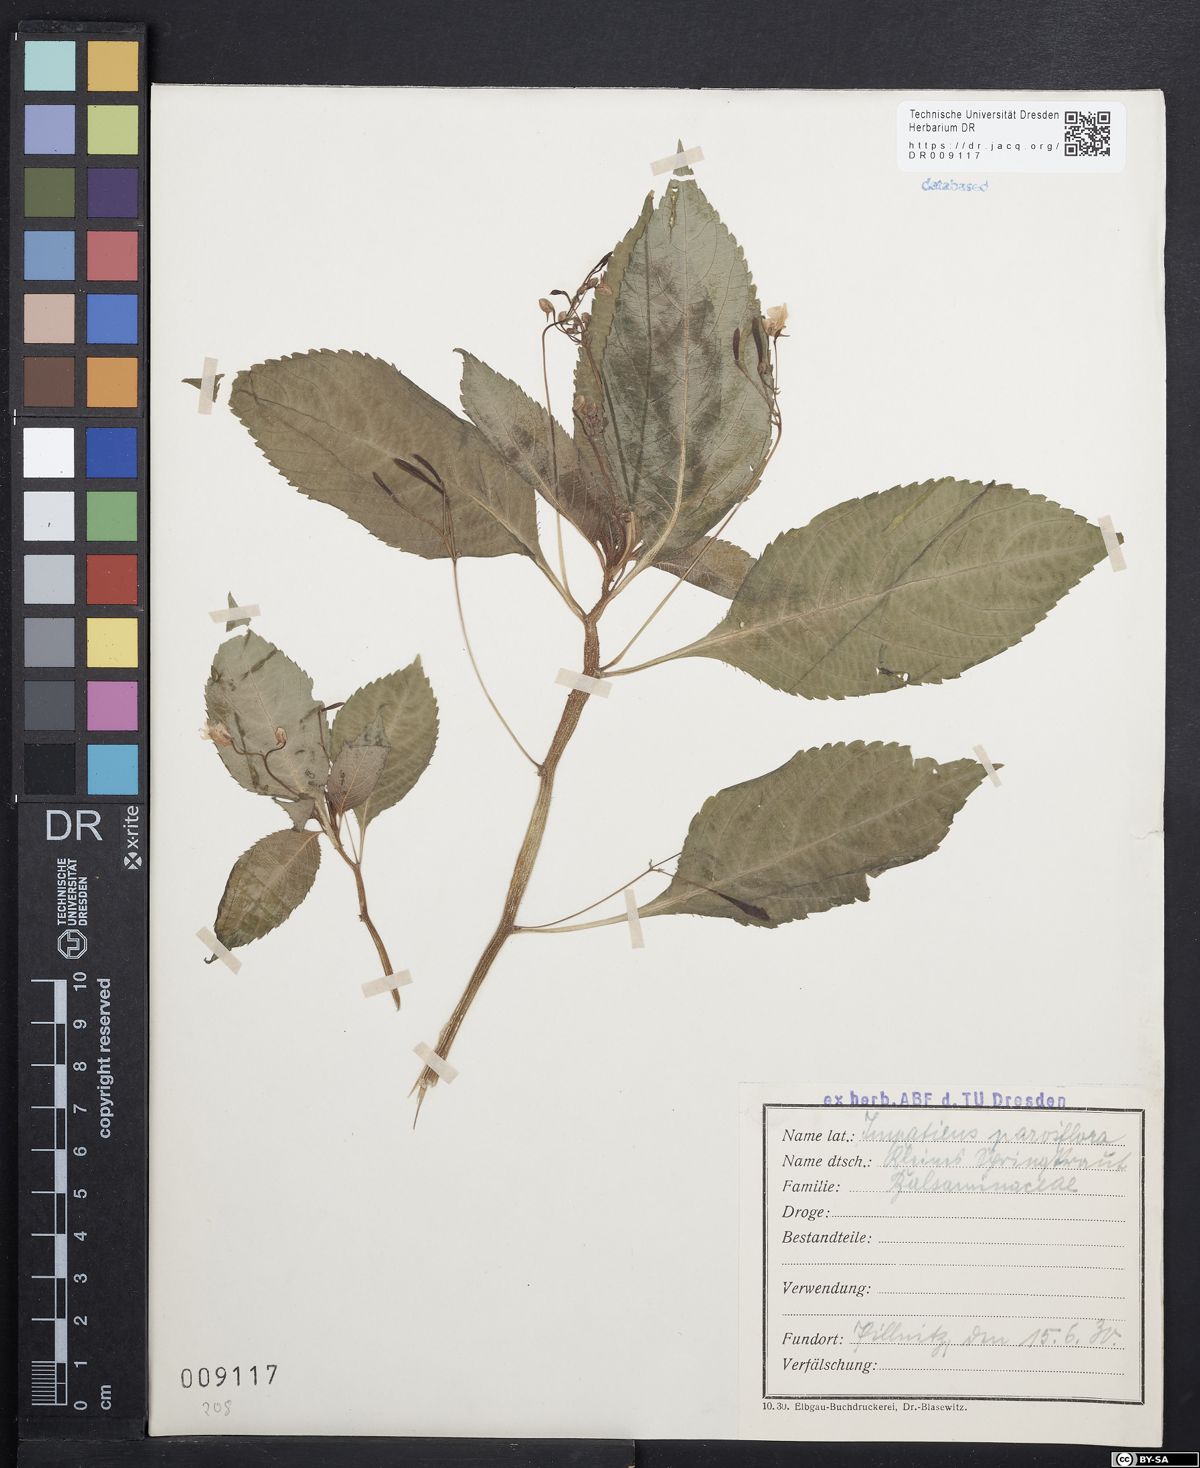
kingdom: Plantae
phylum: Tracheophyta
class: Magnoliopsida
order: Ericales
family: Balsaminaceae
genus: Impatiens
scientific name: Impatiens parviflora
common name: Small balsam
